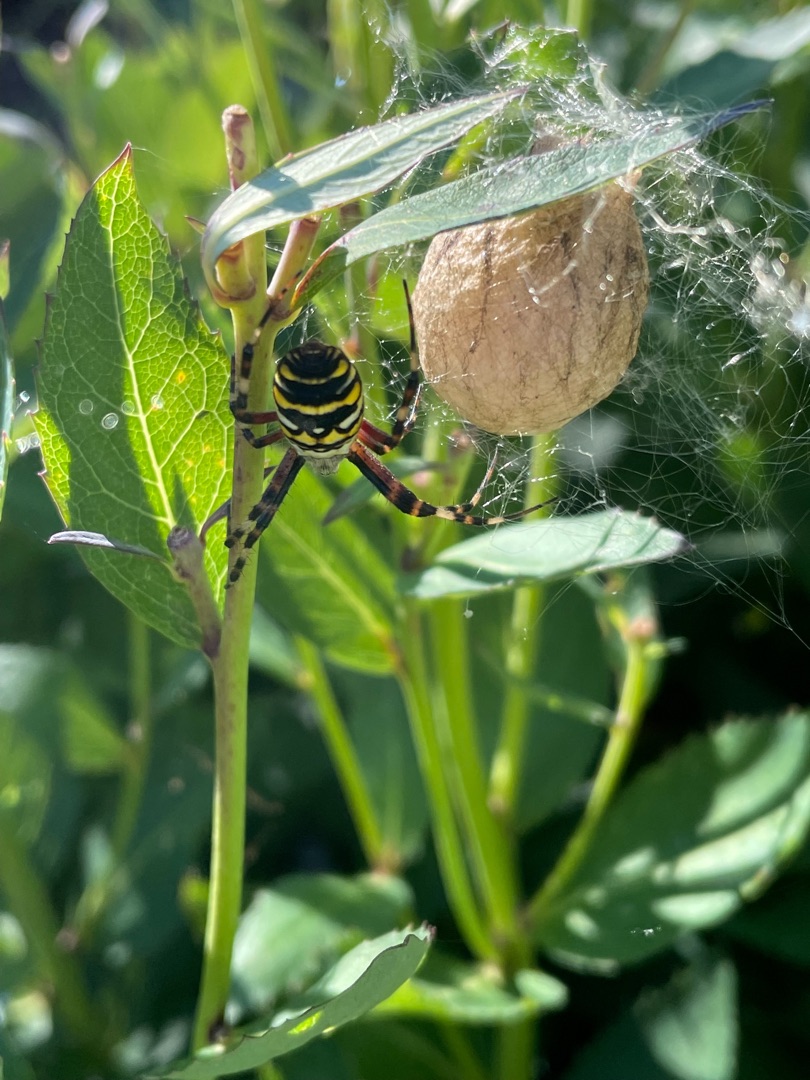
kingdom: Animalia
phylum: Arthropoda
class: Arachnida
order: Araneae
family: Araneidae
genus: Argiope
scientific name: Argiope bruennichi
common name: Hvepseedderkop
